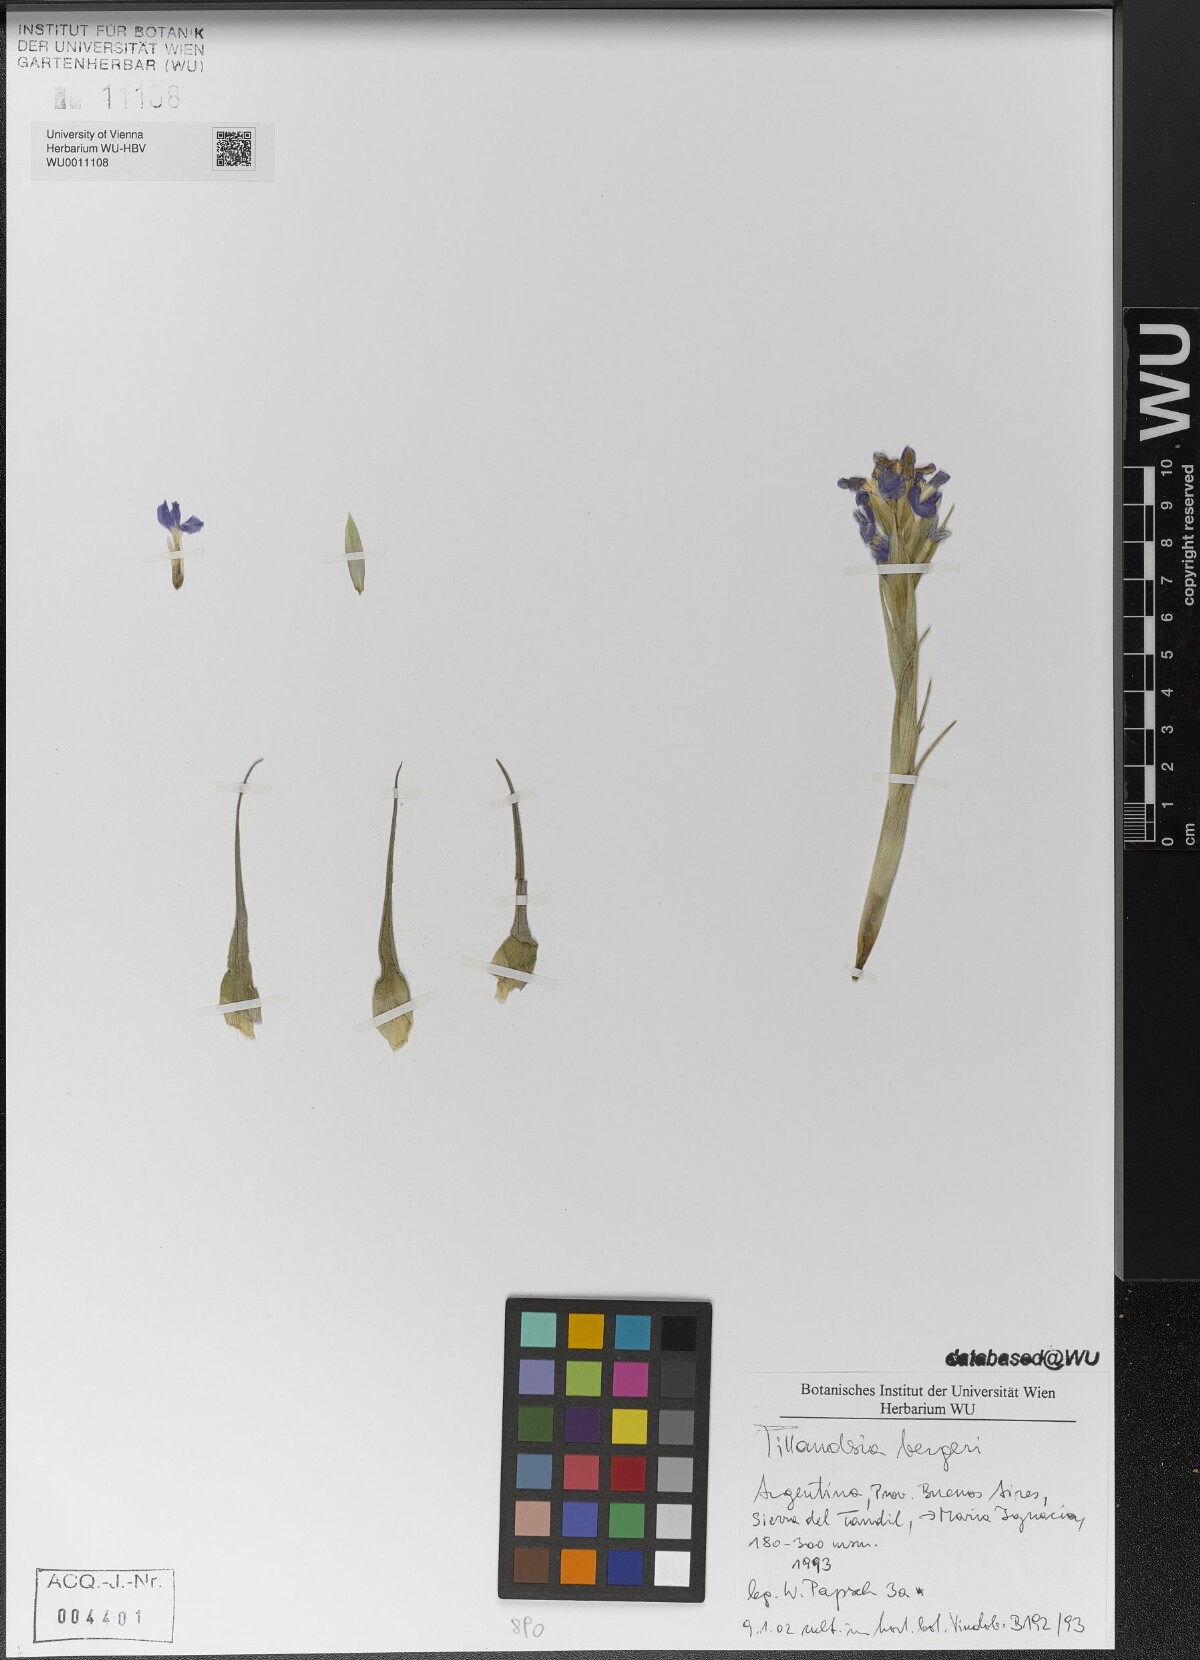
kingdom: Plantae
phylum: Tracheophyta
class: Liliopsida
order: Poales
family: Bromeliaceae
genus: Tillandsia
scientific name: Tillandsia bergeri
